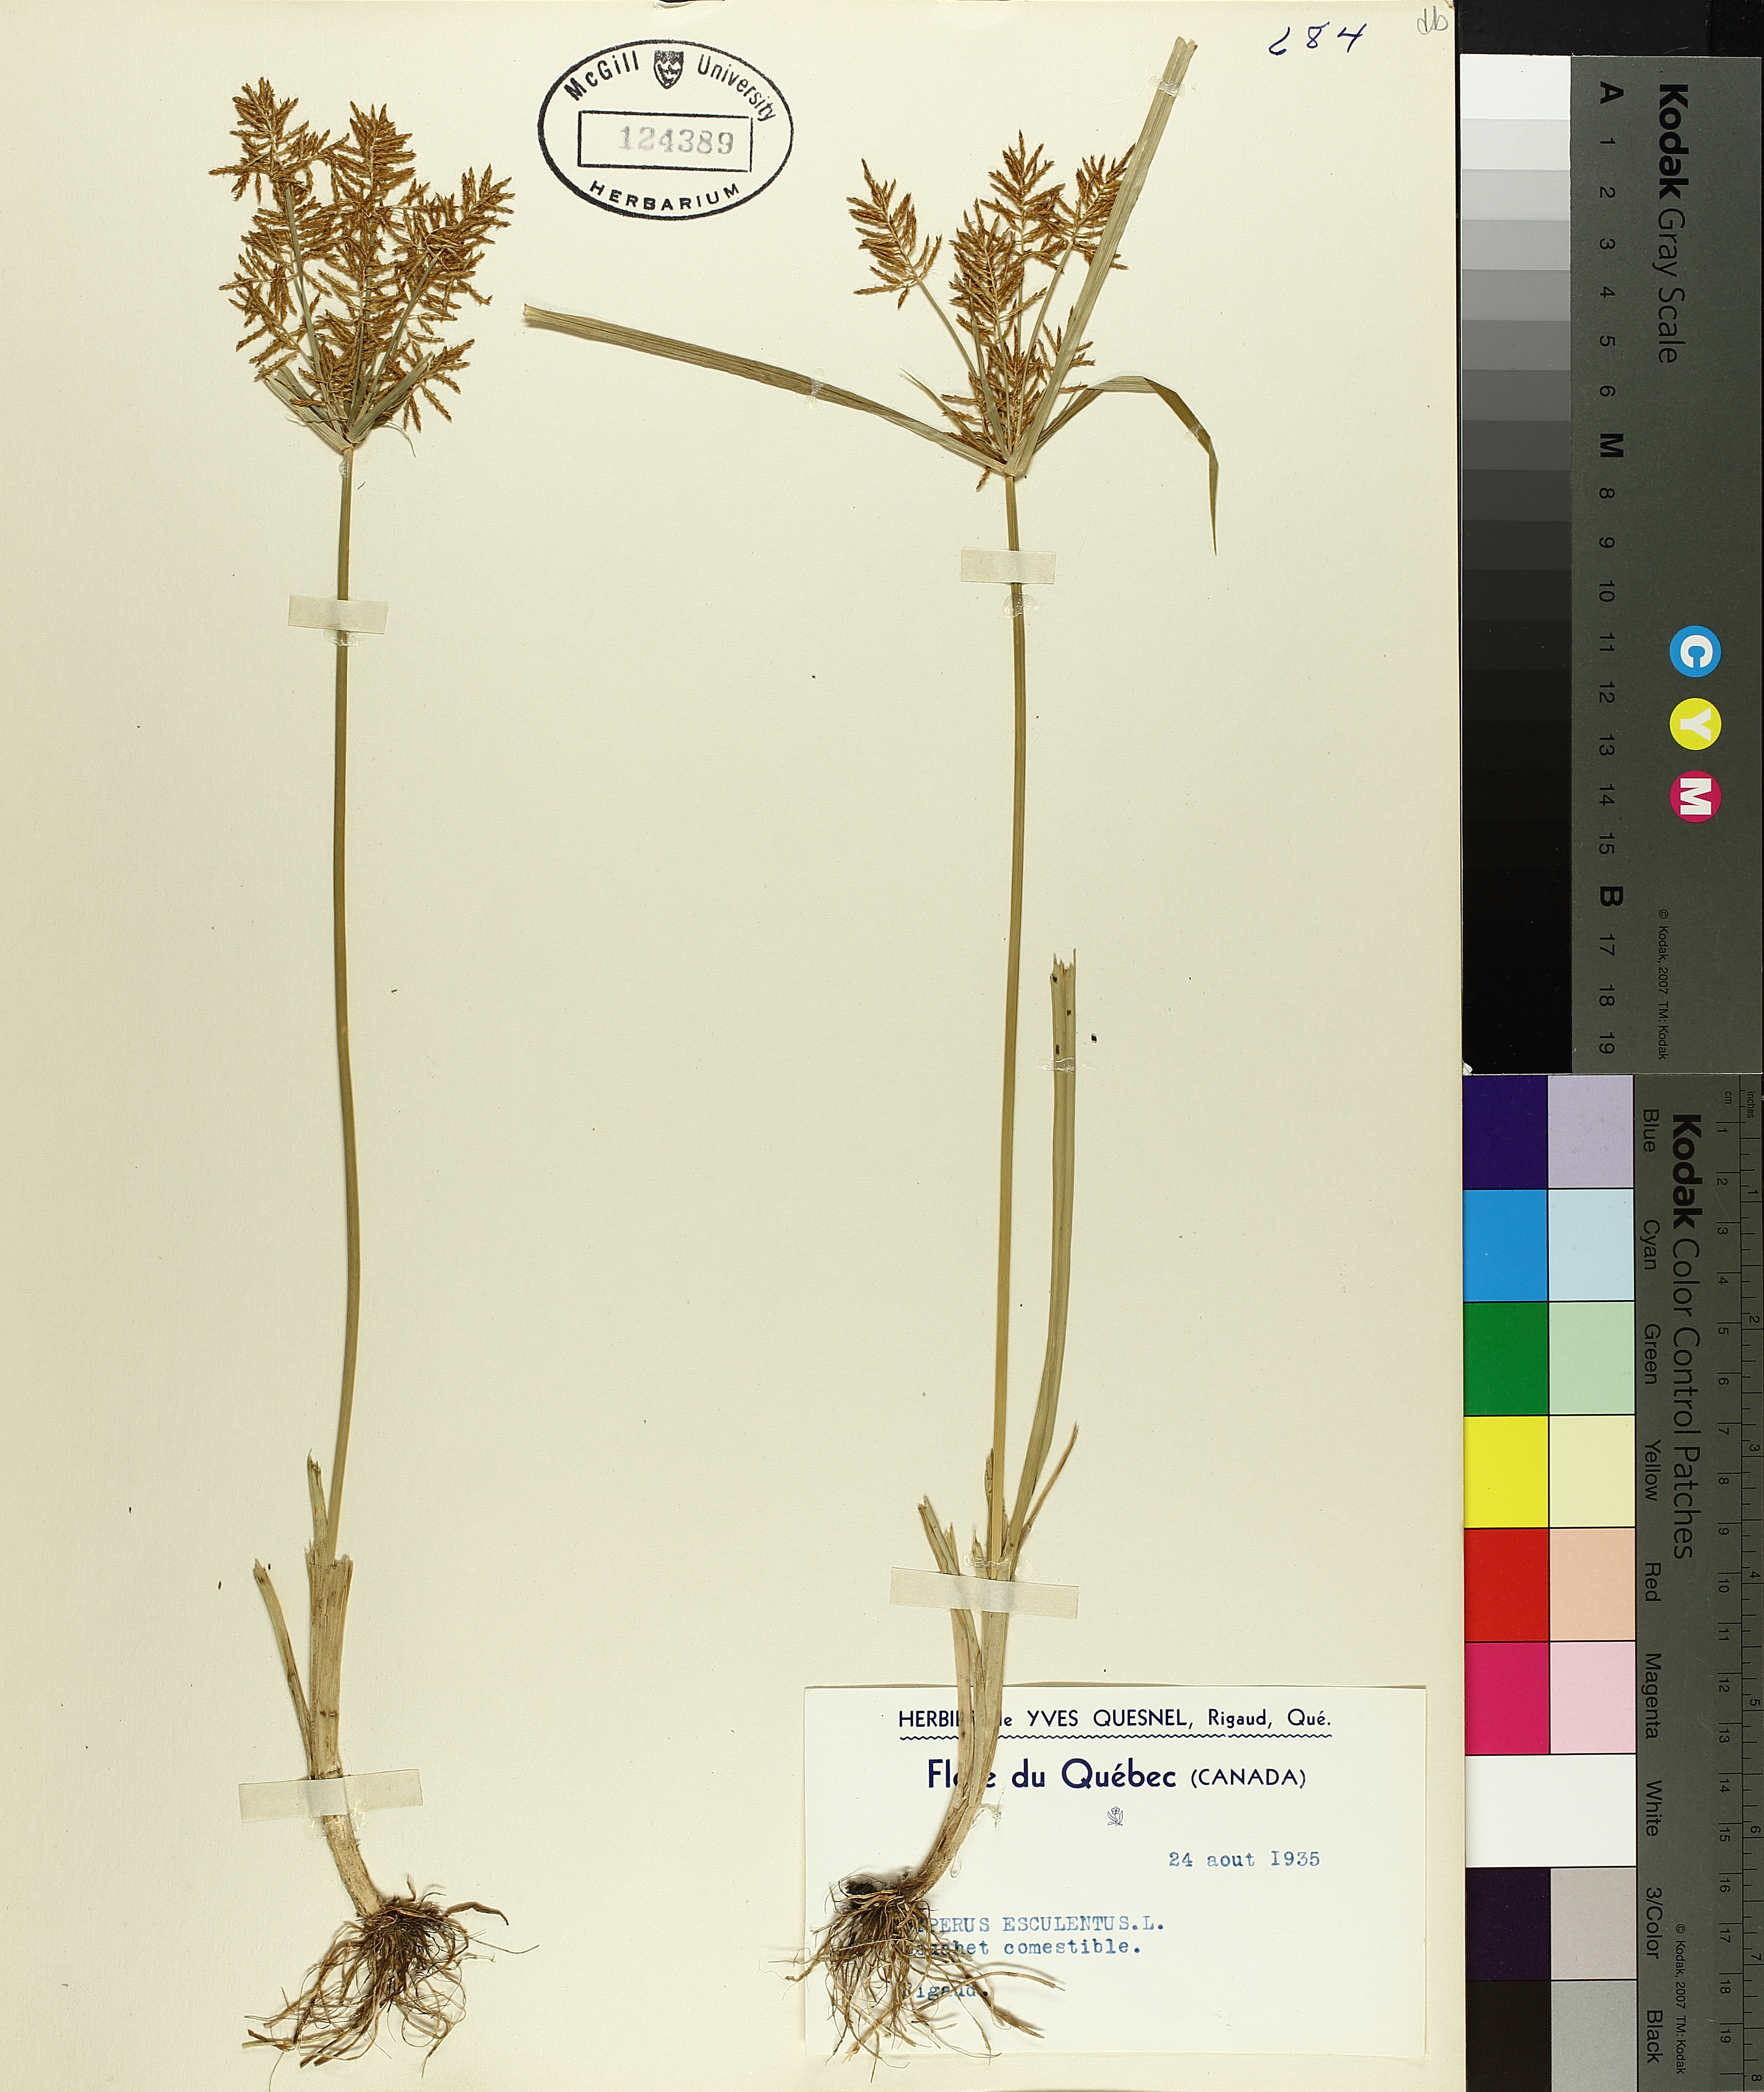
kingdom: Plantae
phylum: Tracheophyta
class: Liliopsida
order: Poales
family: Cyperaceae
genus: Cyperus
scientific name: Cyperus esculentus
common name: Yellow nutsedge
